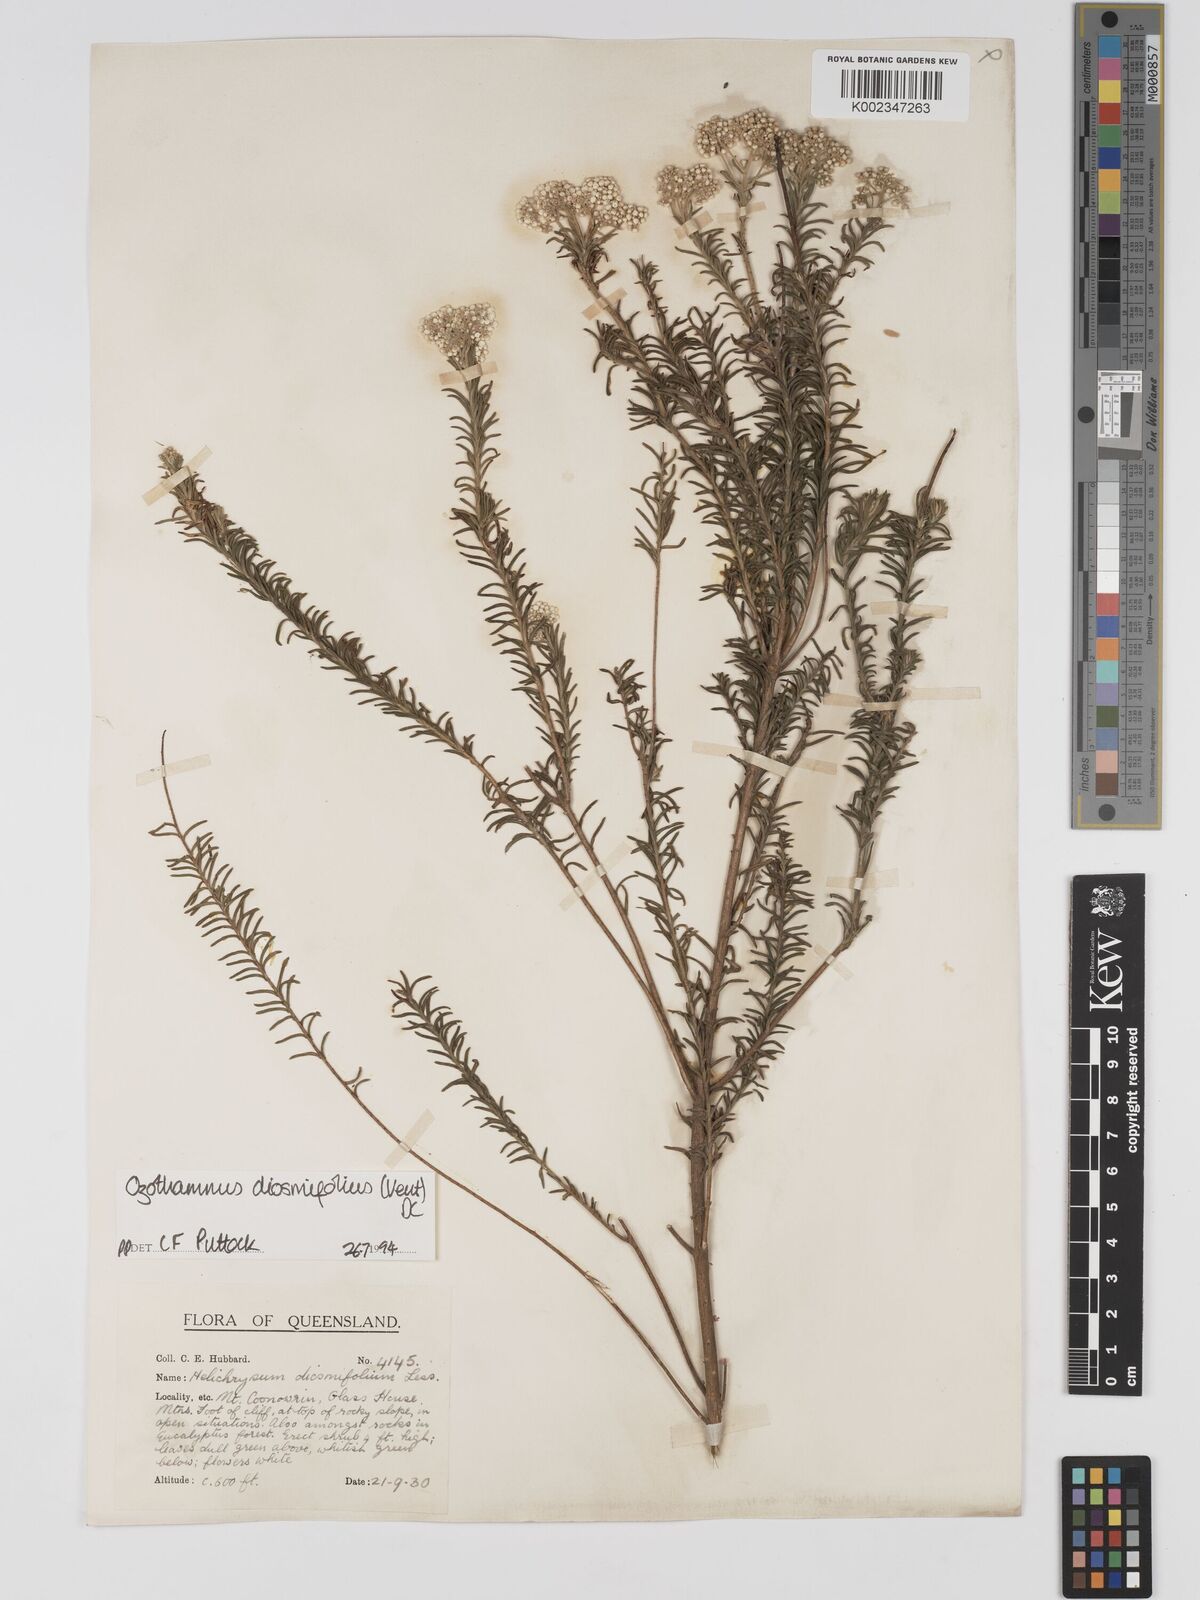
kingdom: Plantae
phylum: Tracheophyta
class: Magnoliopsida
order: Asterales
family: Asteraceae
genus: Ozothamnus
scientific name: Ozothamnus diosmifolius
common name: White-dogwood
